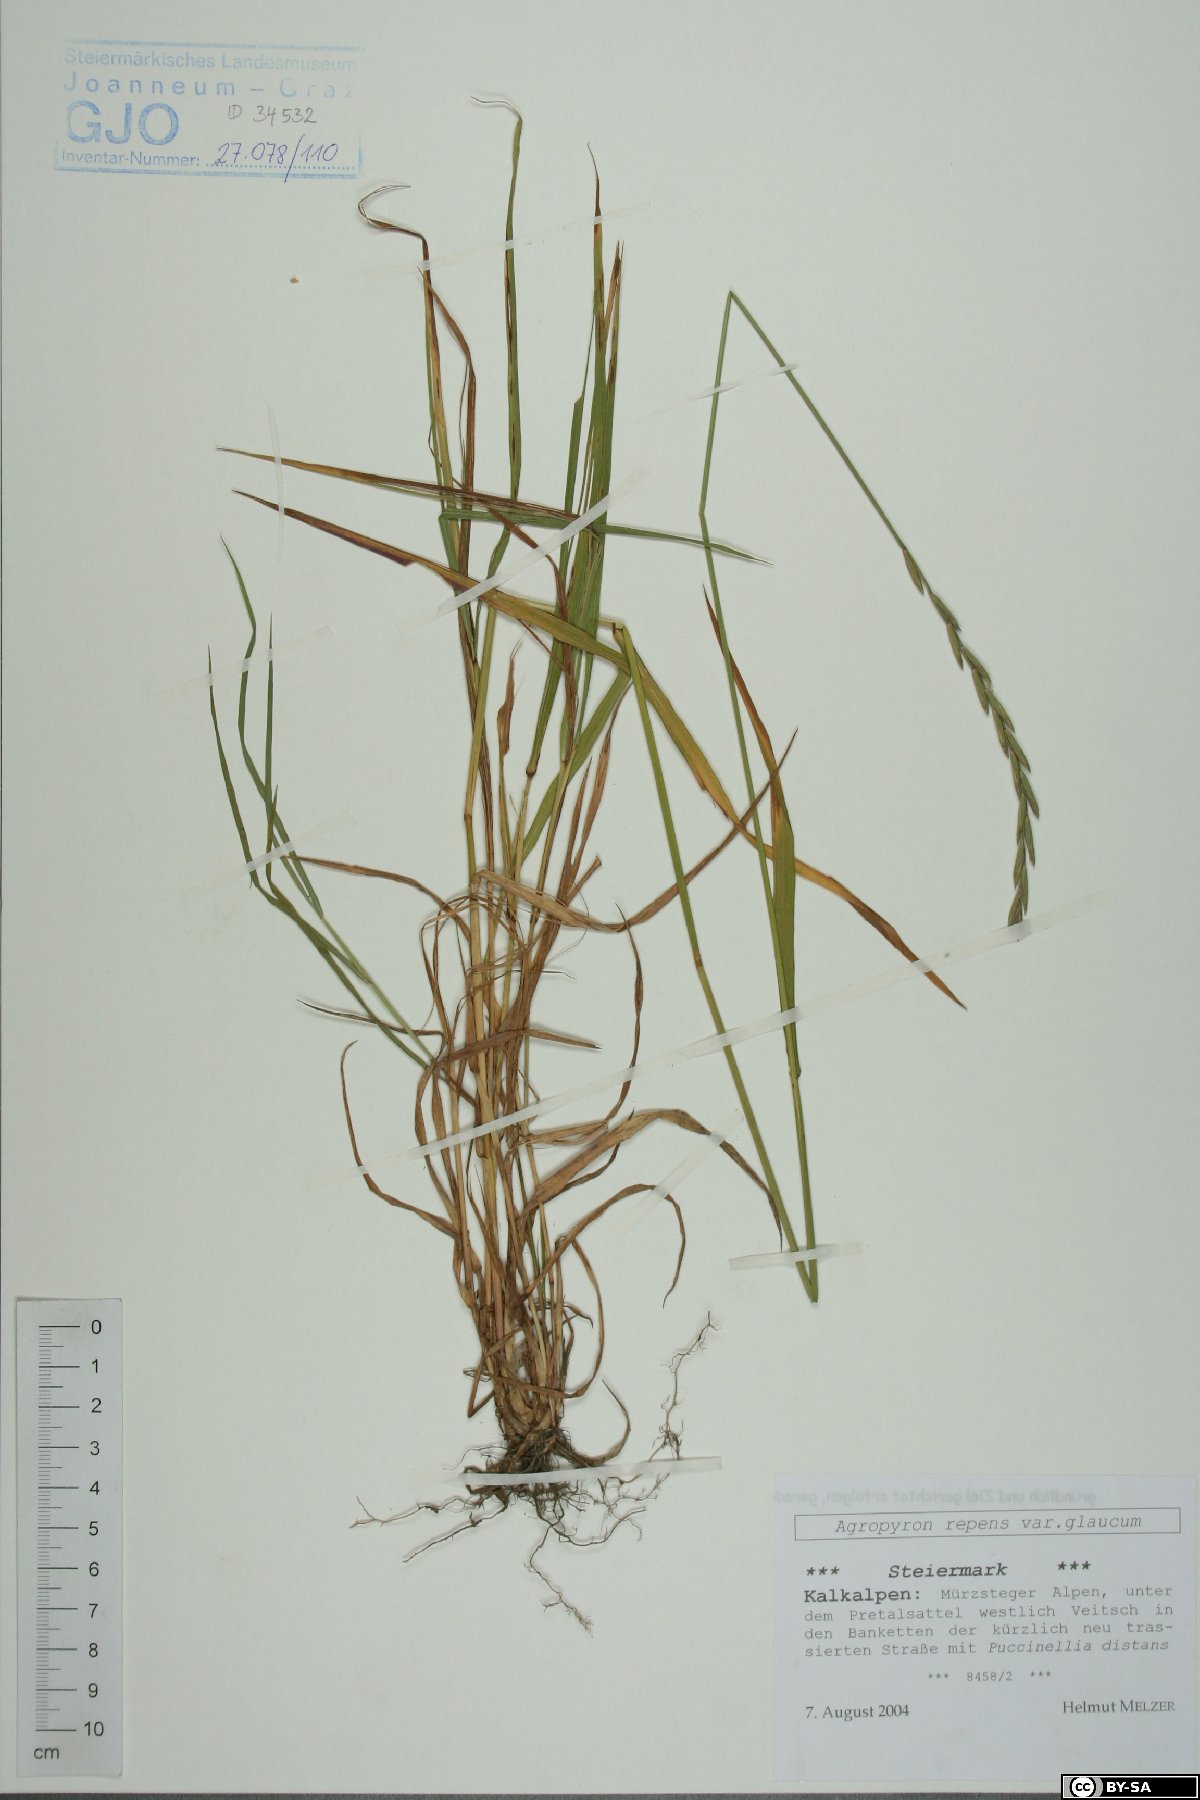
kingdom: Plantae
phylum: Tracheophyta
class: Liliopsida
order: Poales
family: Poaceae
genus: Thinopyrum
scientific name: Thinopyrum intermedium
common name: Intermediate wheatgrass
